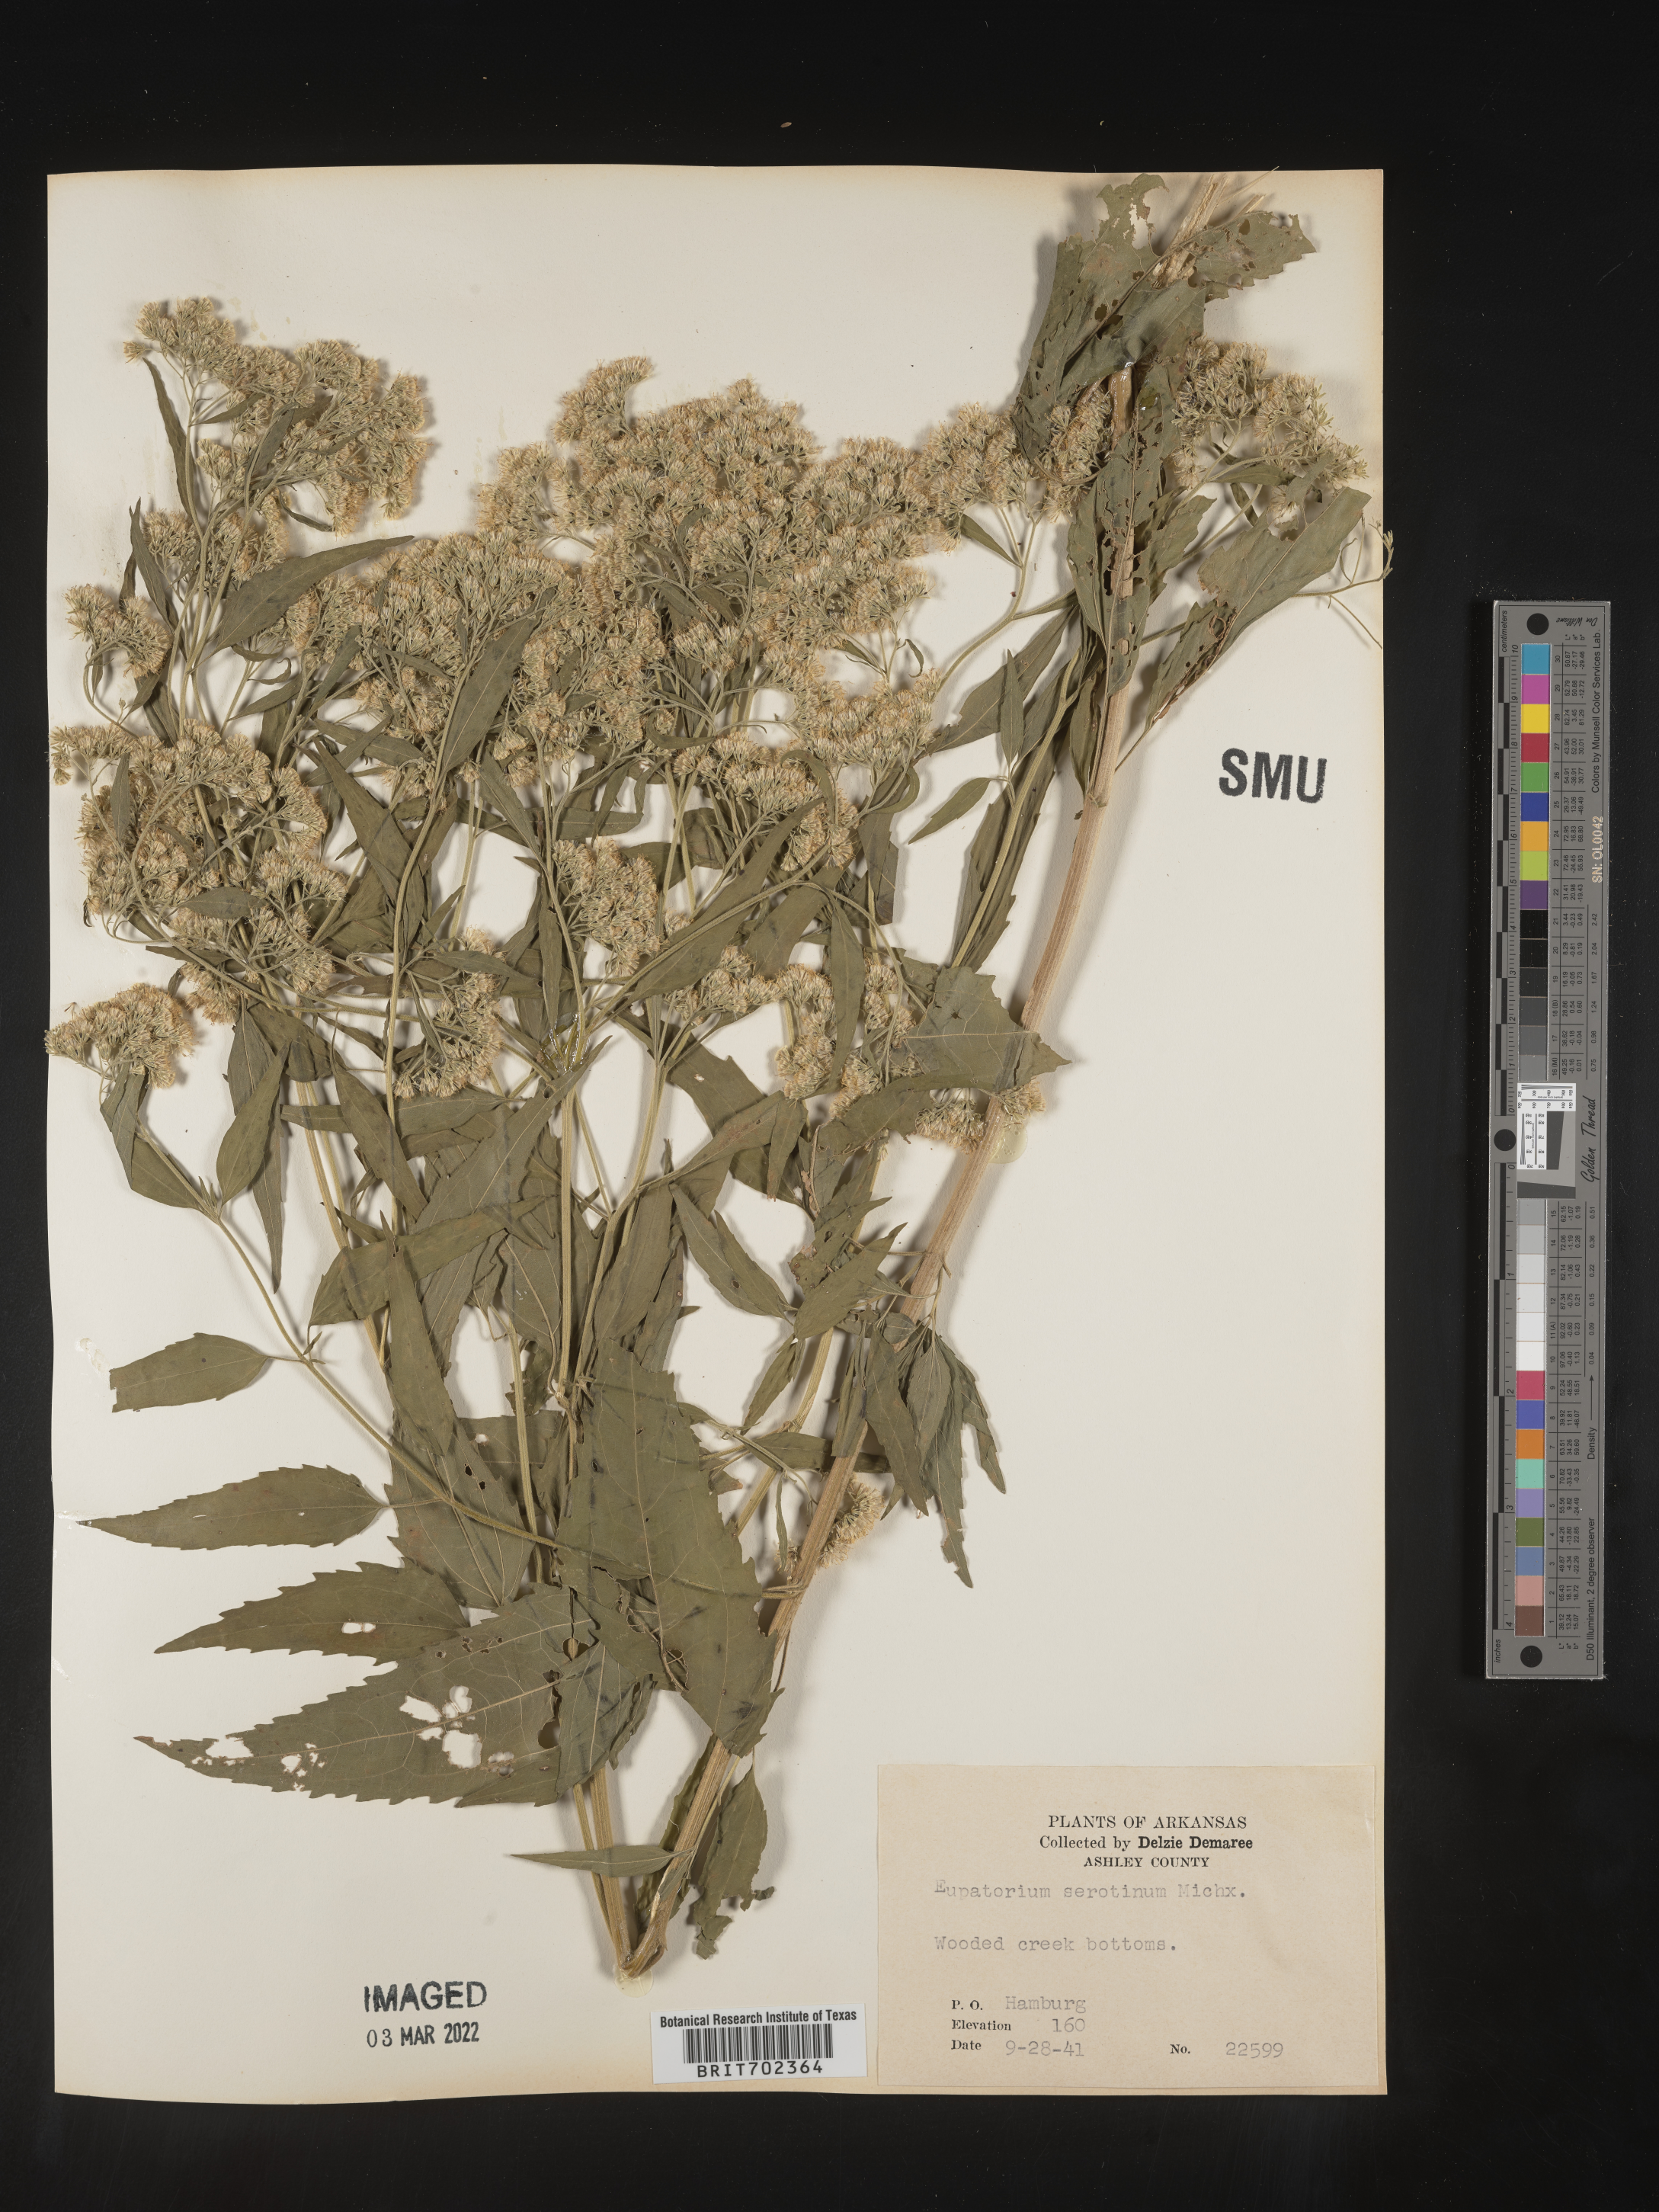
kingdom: Plantae
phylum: Tracheophyta
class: Magnoliopsida
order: Asterales
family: Asteraceae
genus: Eupatorium
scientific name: Eupatorium serotinum
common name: Late boneset
